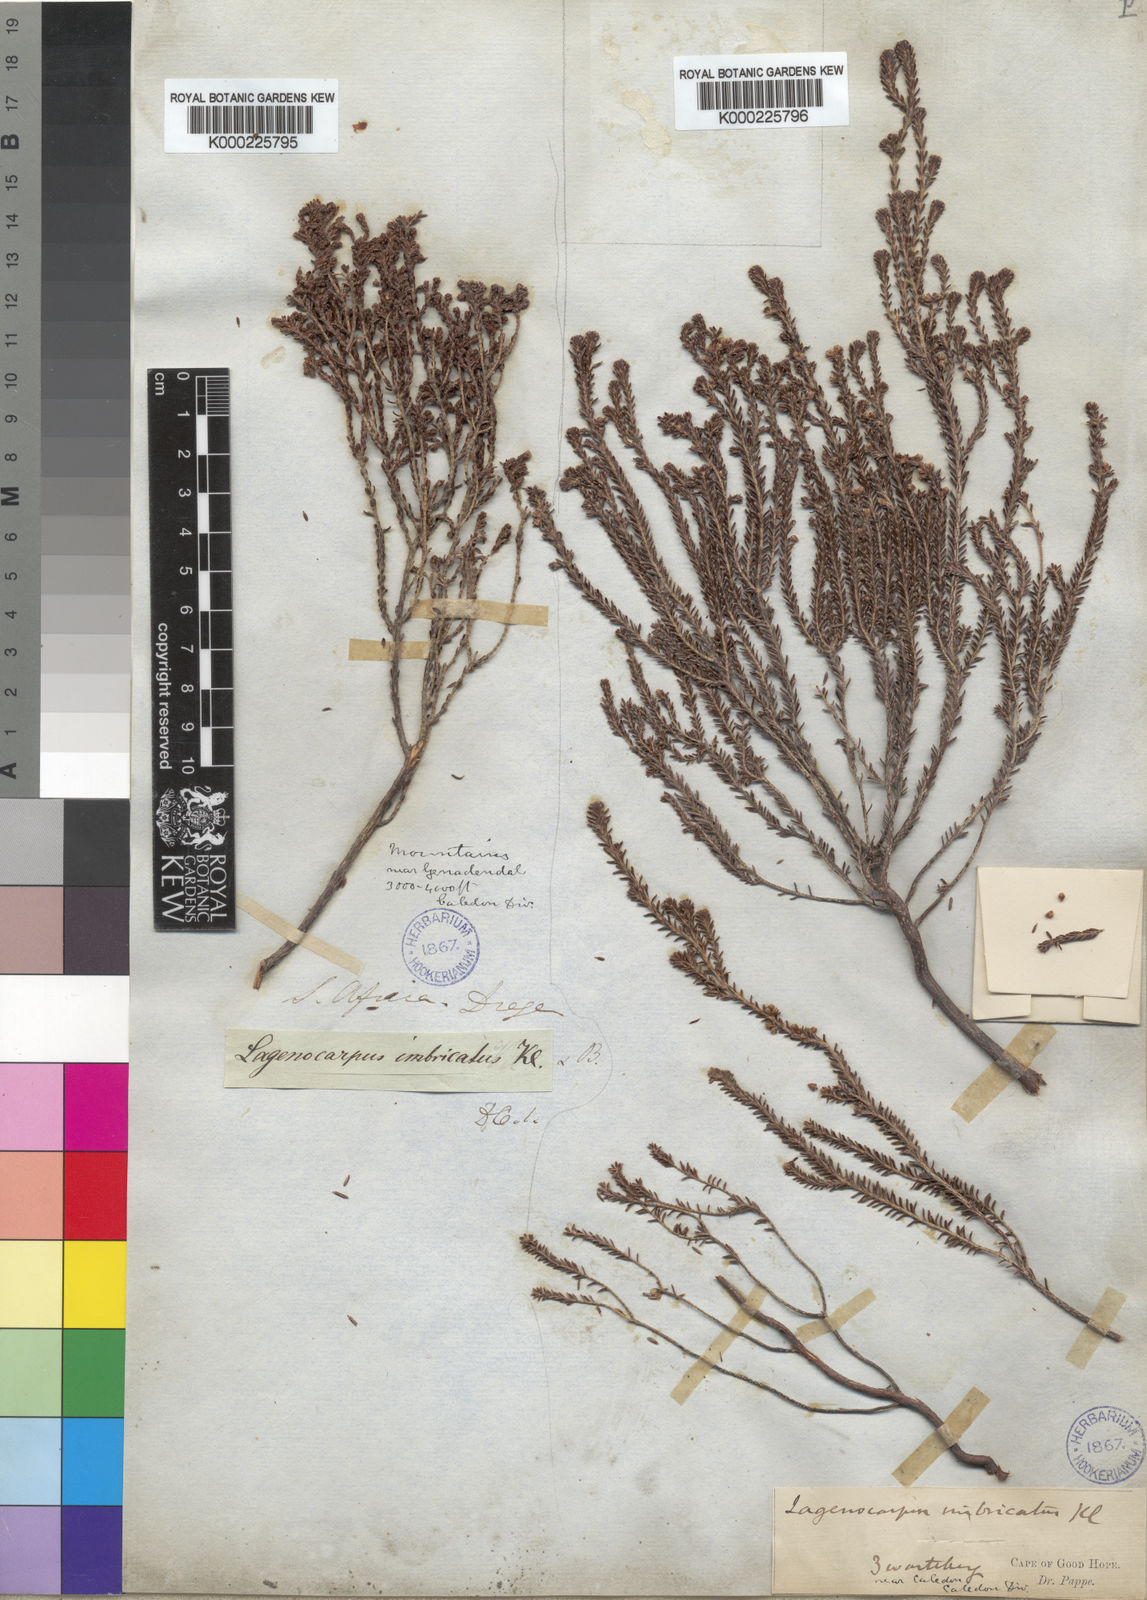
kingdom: Plantae
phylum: Tracheophyta
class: Magnoliopsida
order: Ericales
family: Ericaceae
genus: Erica
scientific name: Erica
